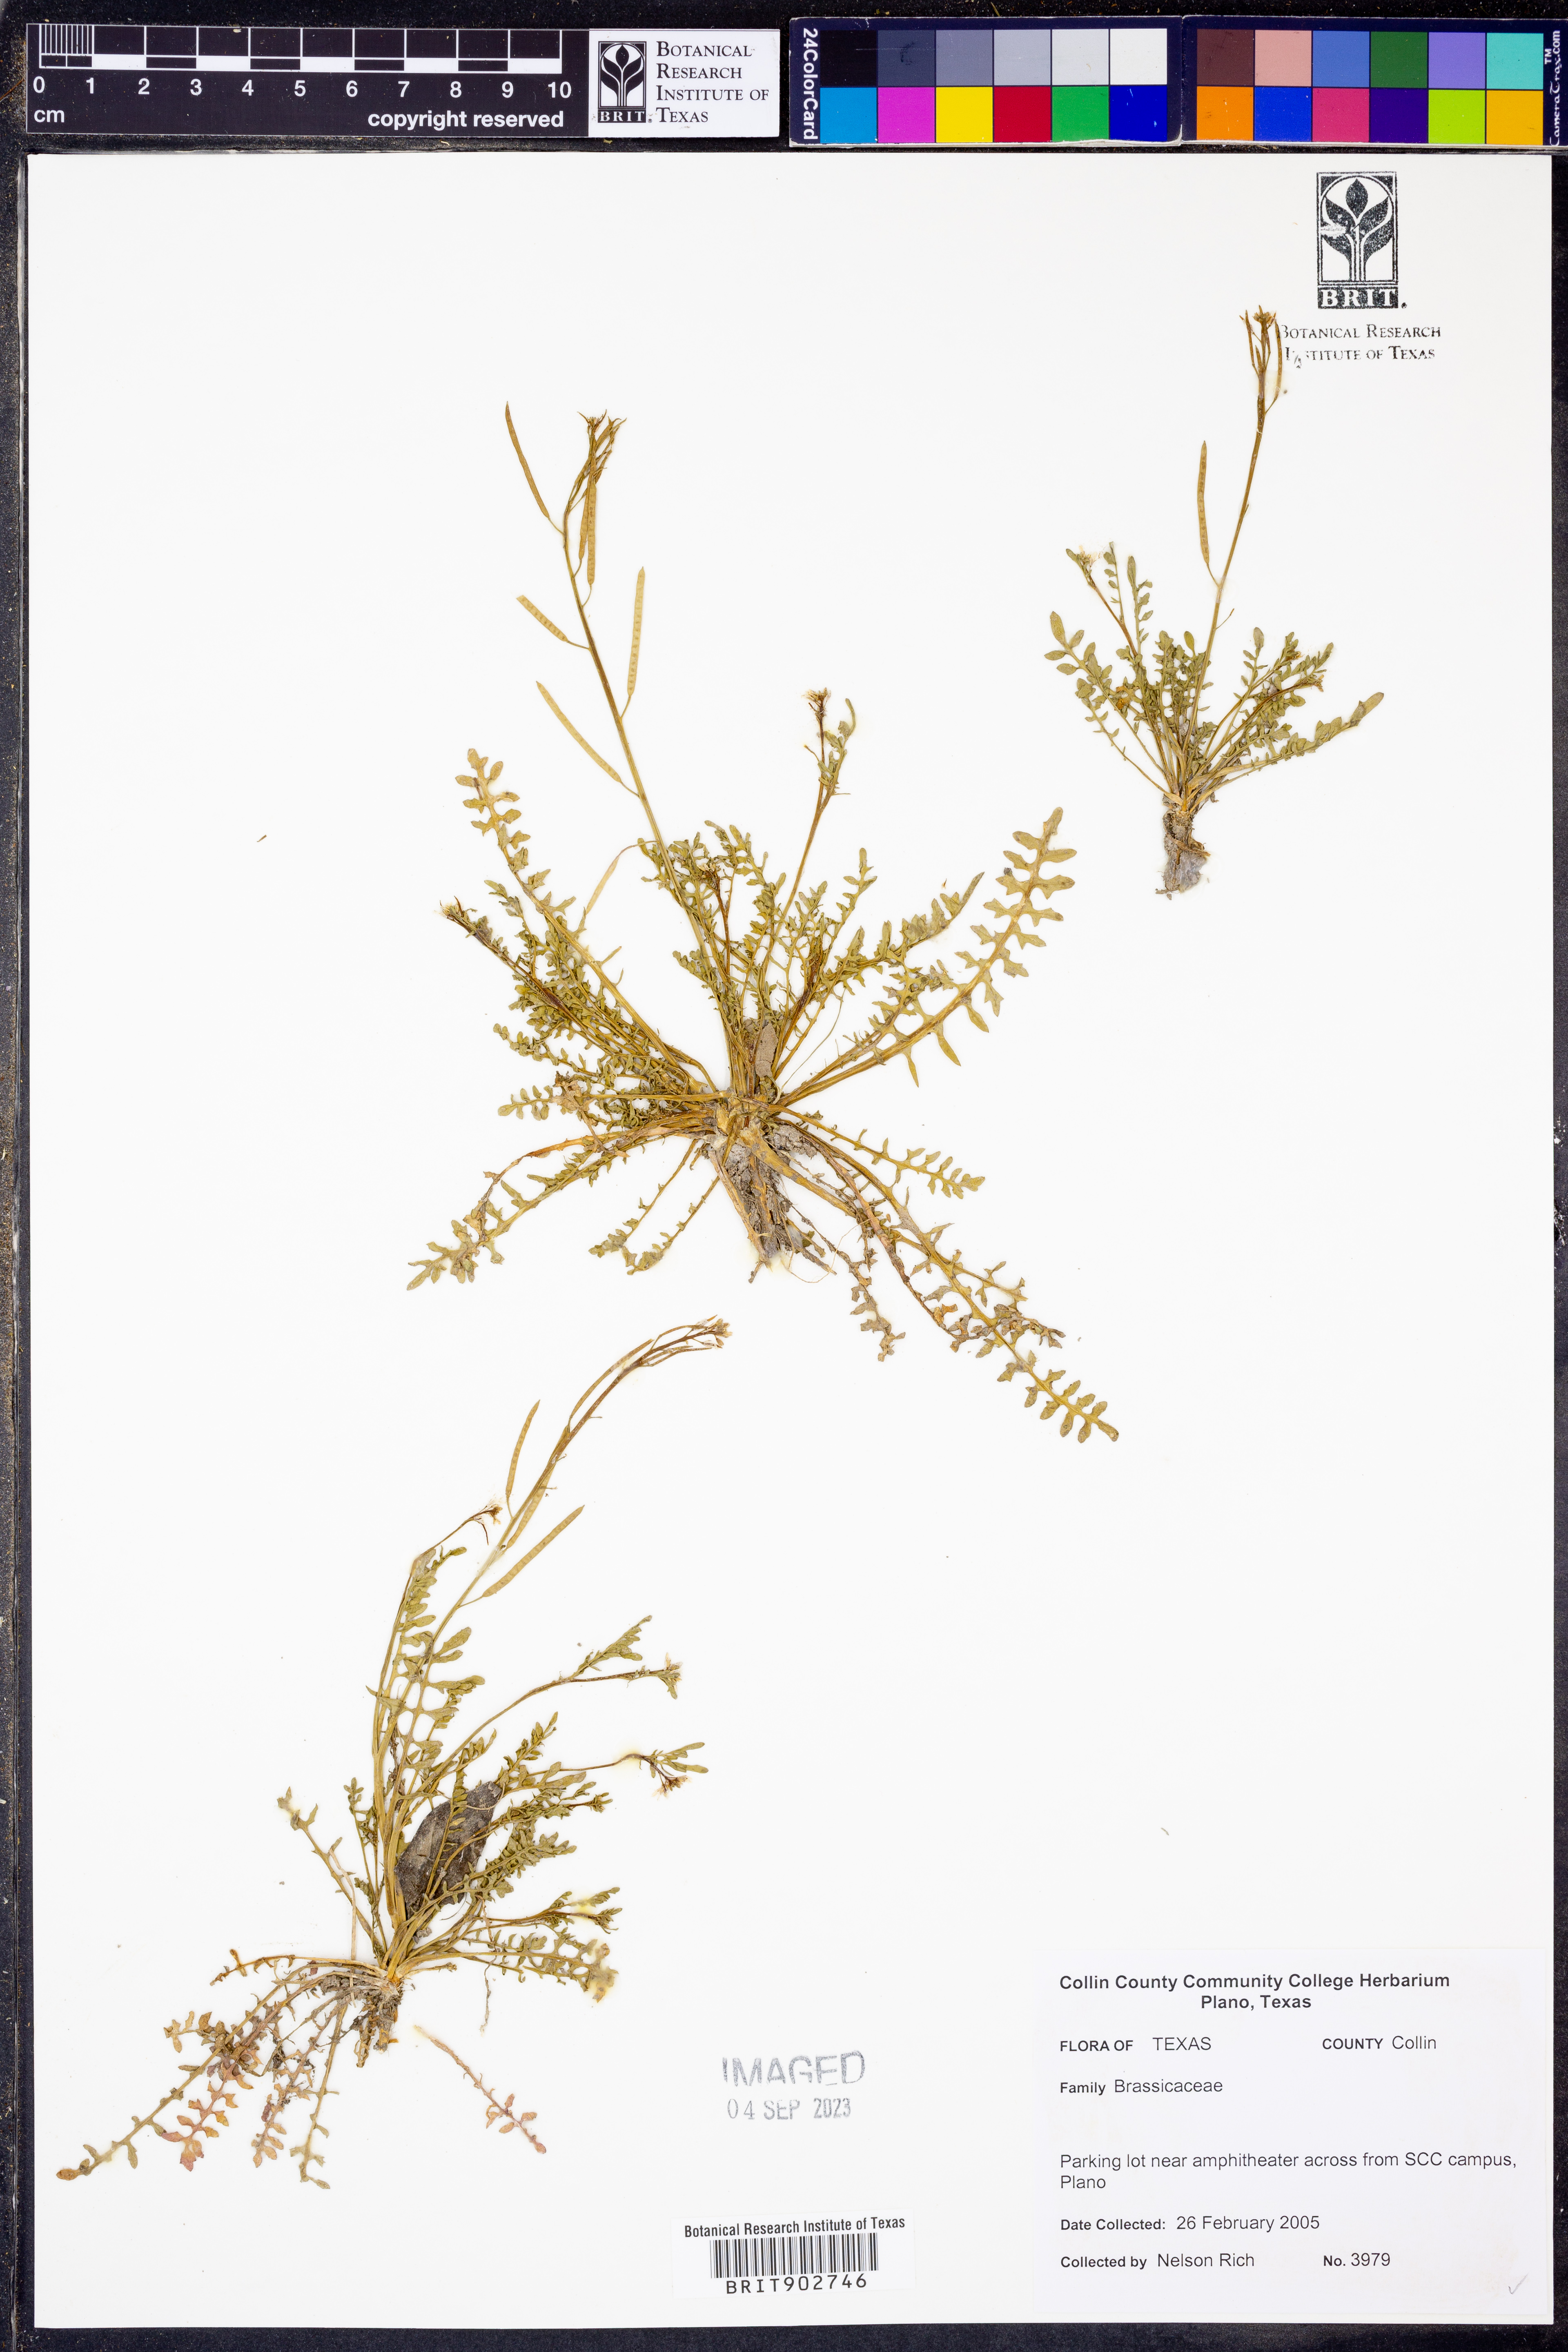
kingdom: Plantae
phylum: Tracheophyta
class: Magnoliopsida
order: Brassicales
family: Brassicaceae
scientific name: Brassicaceae
